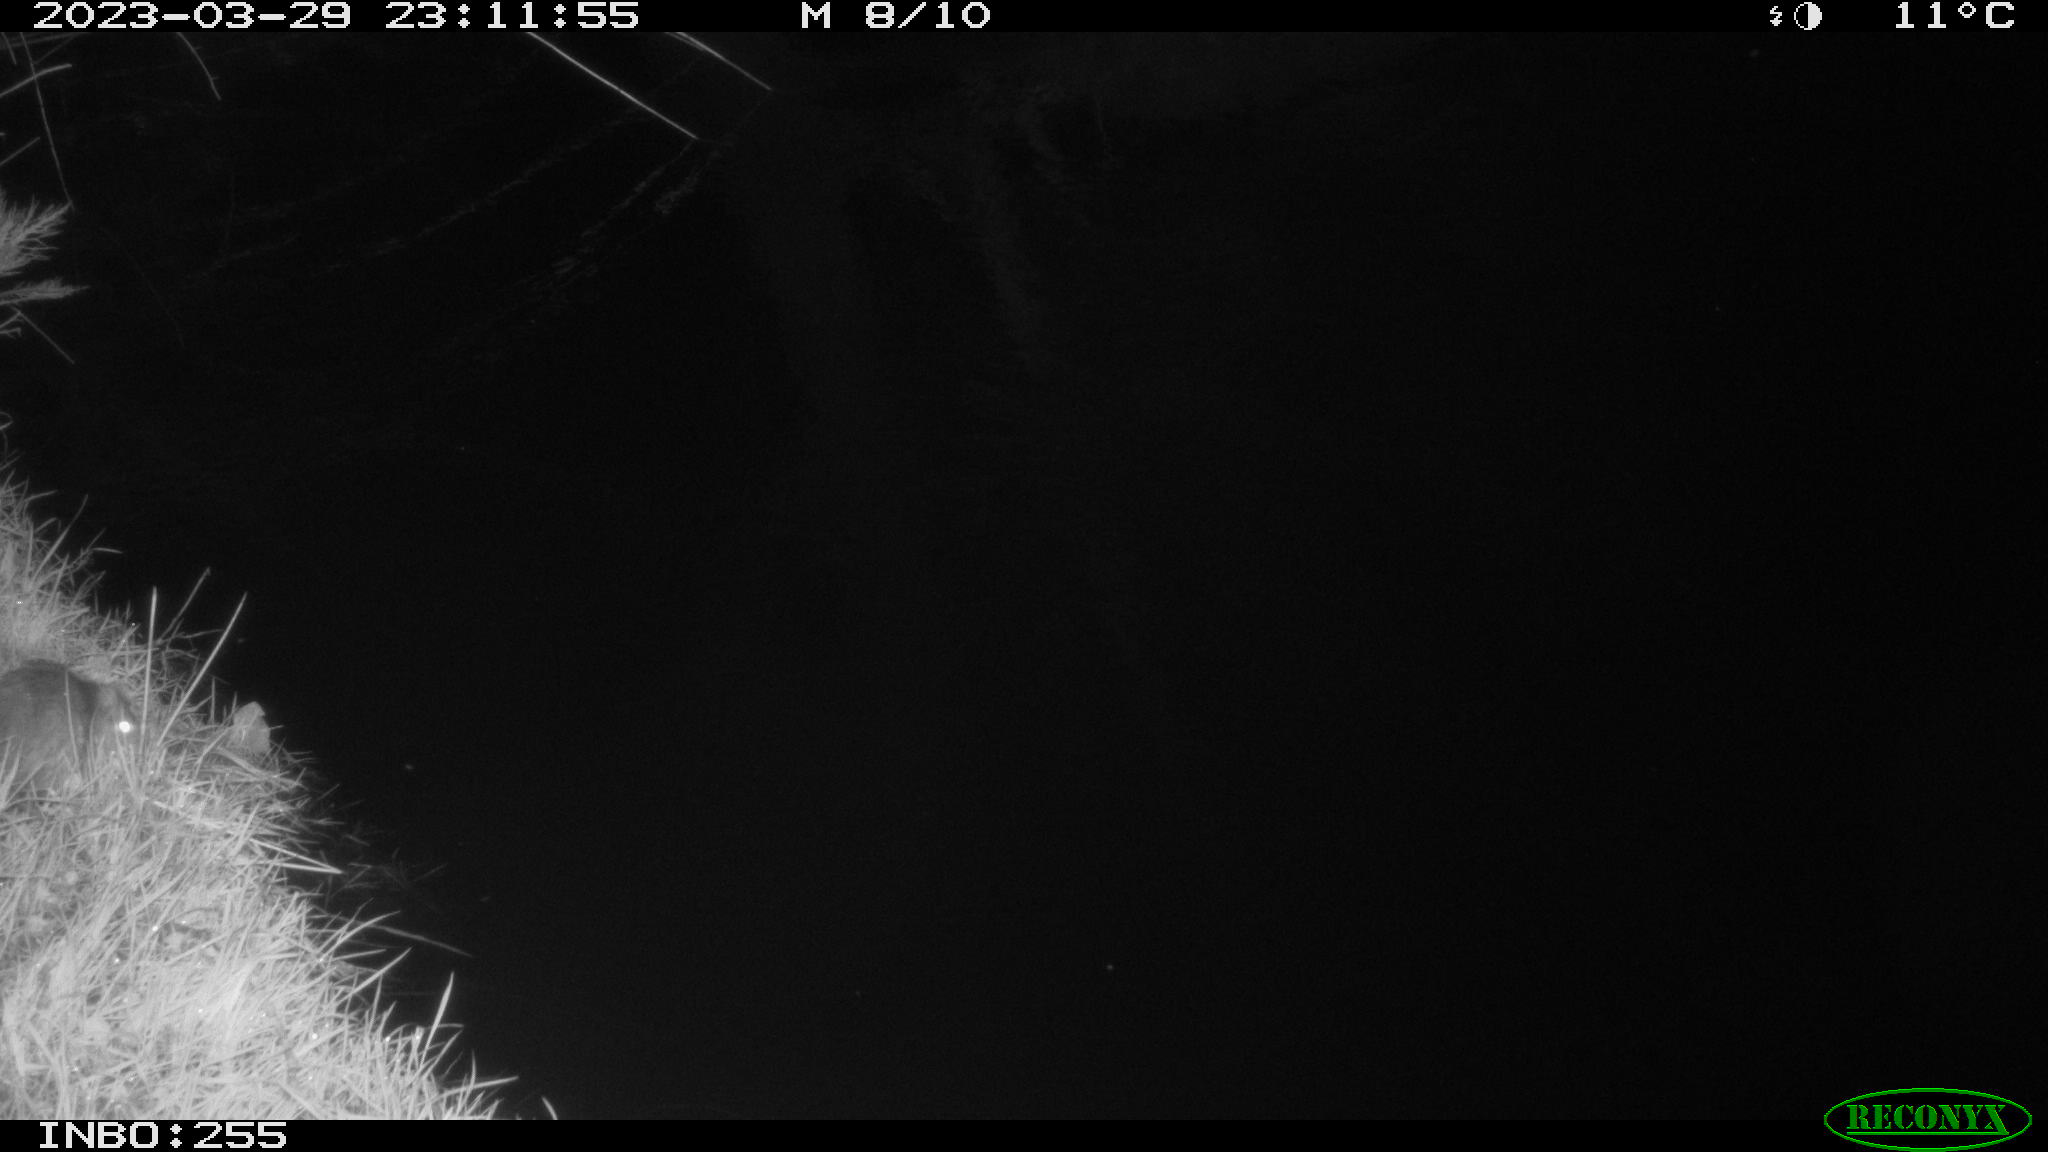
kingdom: Animalia
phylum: Chordata
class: Mammalia
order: Rodentia
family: Muridae
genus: Rattus
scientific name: Rattus norvegicus
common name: Brown rat
